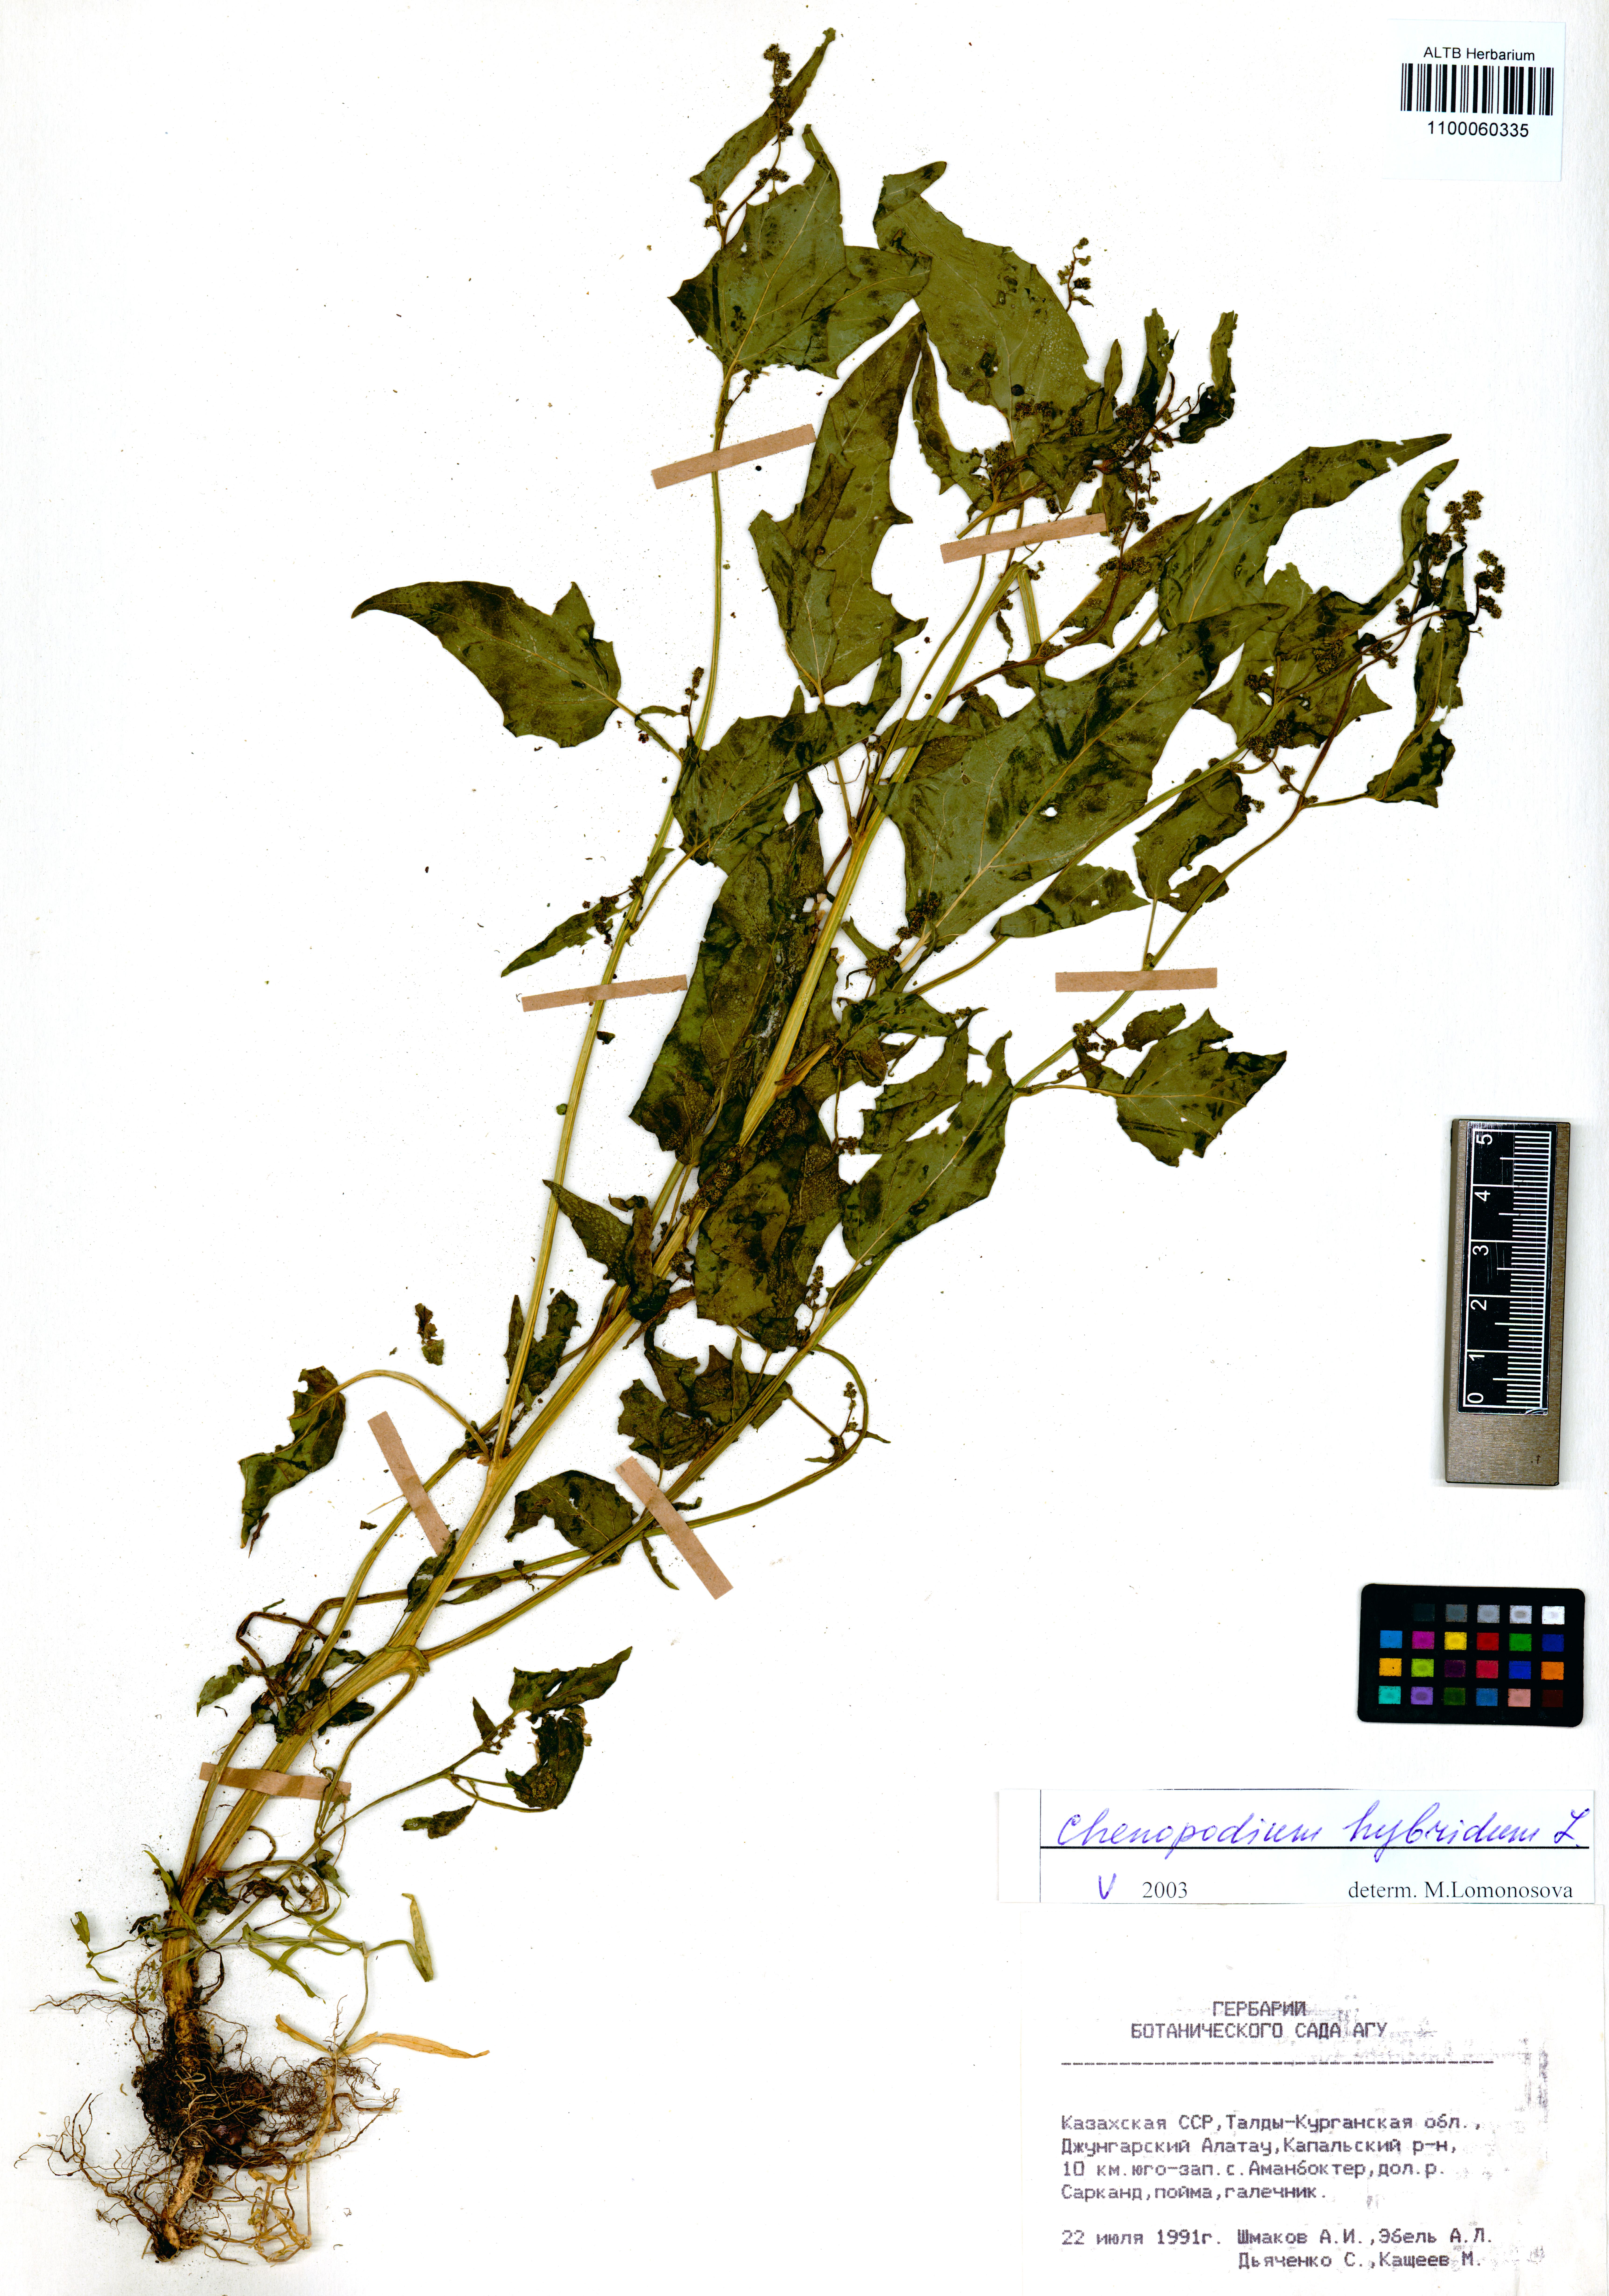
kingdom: Plantae
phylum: Tracheophyta
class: Magnoliopsida
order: Caryophyllales
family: Amaranthaceae
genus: Chenopodiastrum
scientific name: Chenopodiastrum hybridum
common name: Mapleleaf goosefoot
